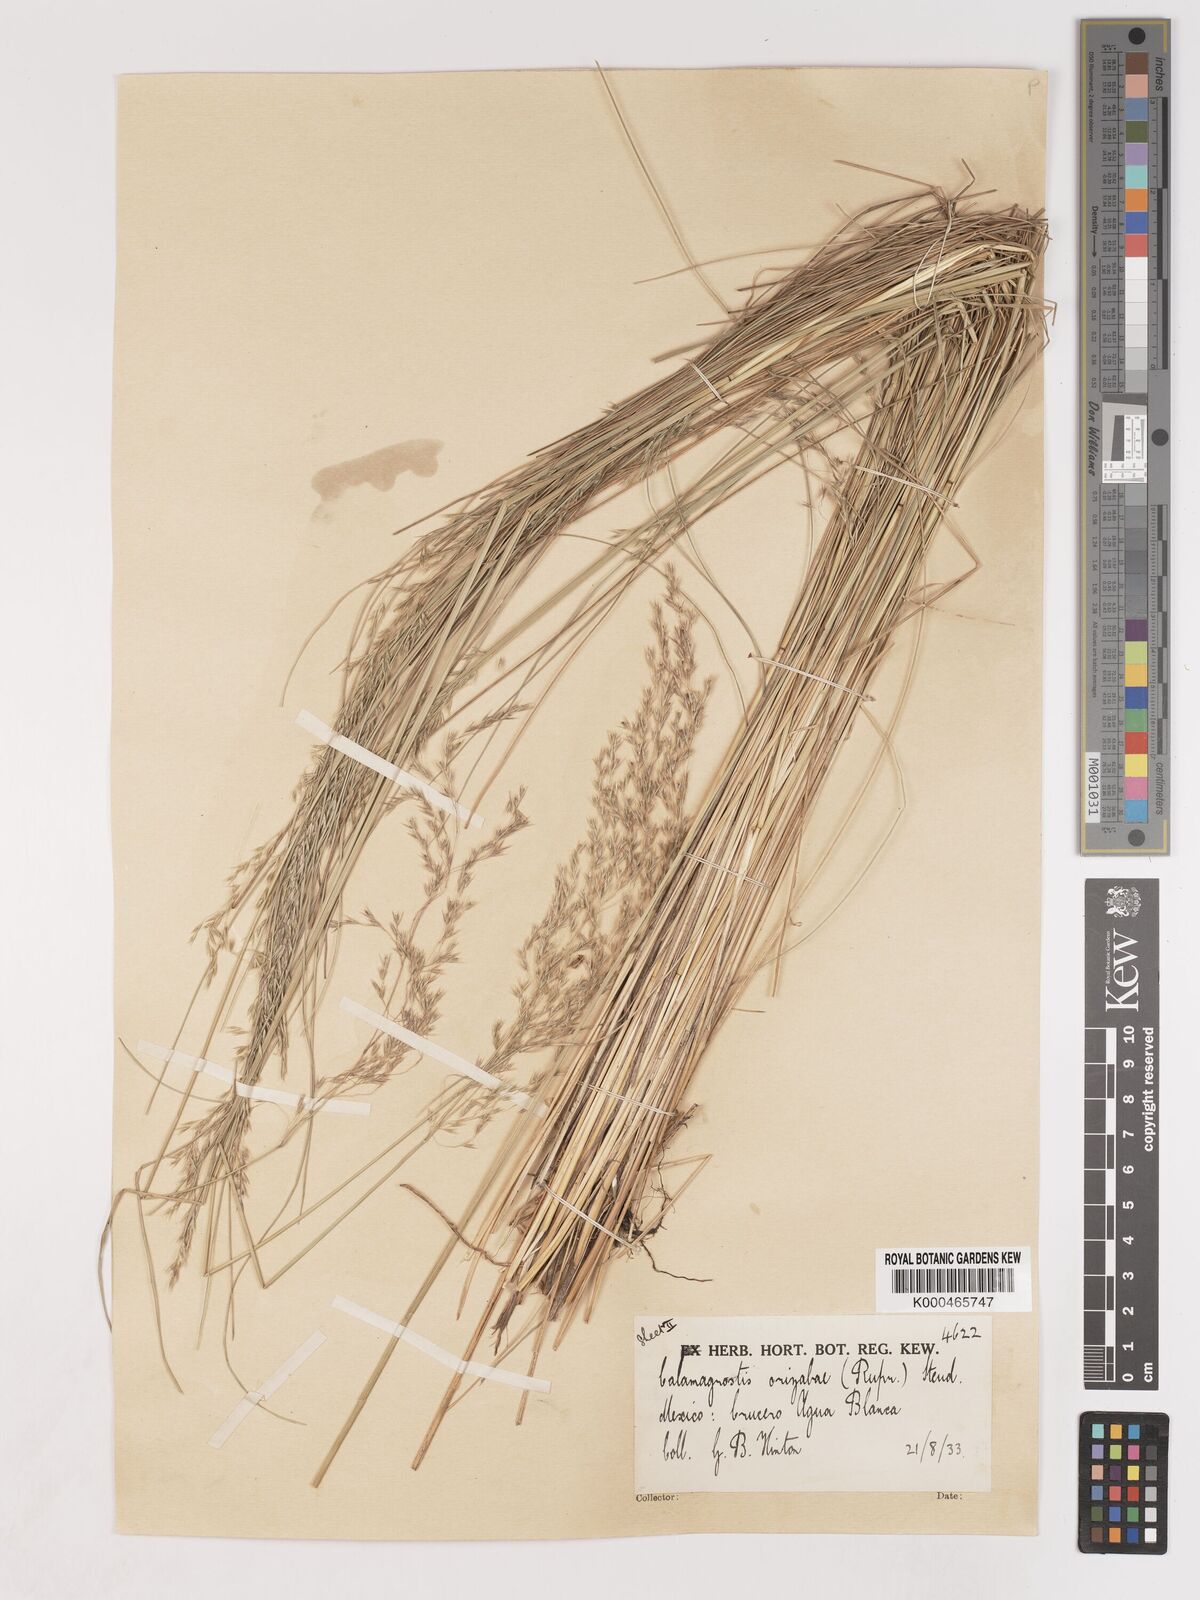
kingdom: Plantae
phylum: Tracheophyta
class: Liliopsida
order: Poales
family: Poaceae
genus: Peyritschia
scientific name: Peyritschia erectifolia
